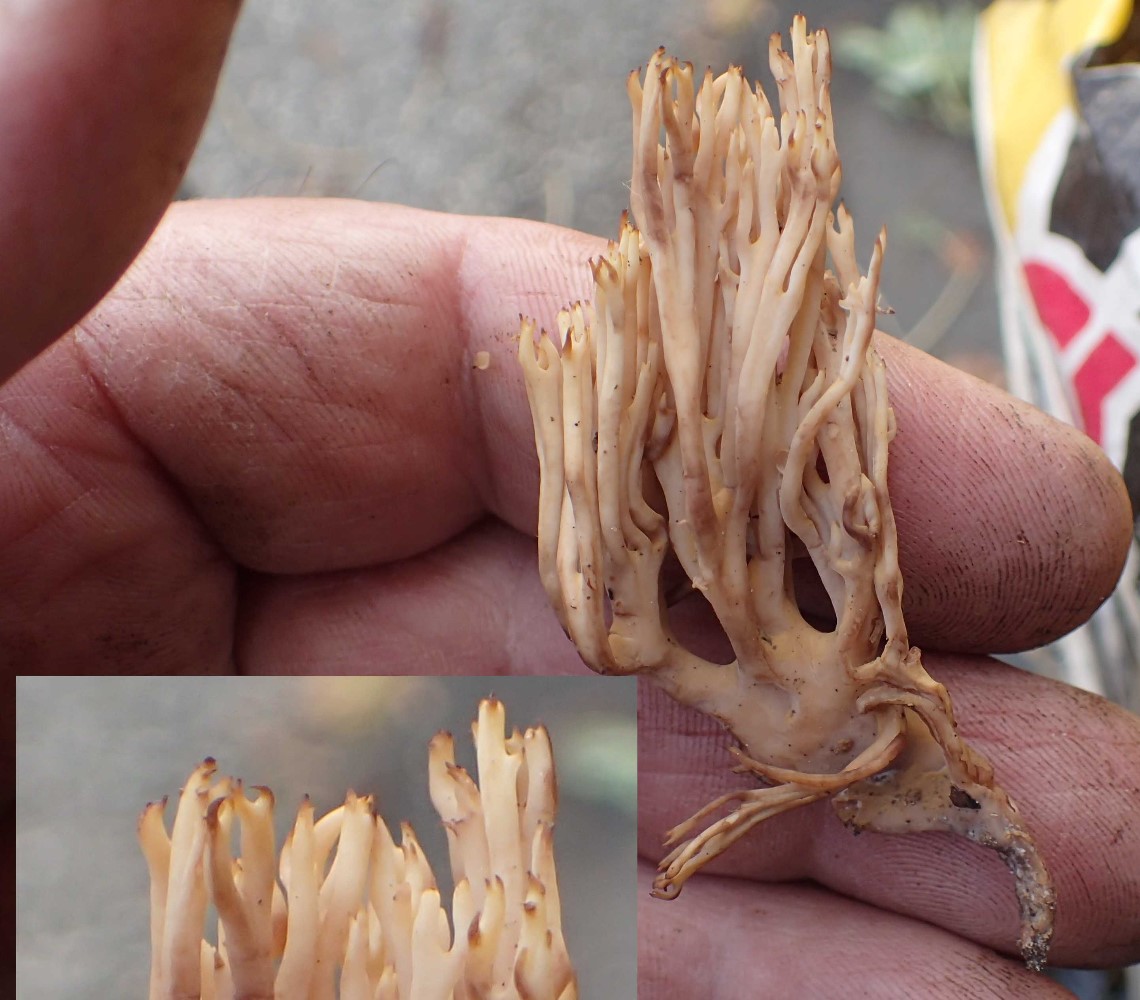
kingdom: Fungi
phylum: Basidiomycota
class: Agaricomycetes
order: Gomphales
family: Gomphaceae
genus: Ramaria
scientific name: Ramaria stricta
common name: rank koralsvamp
